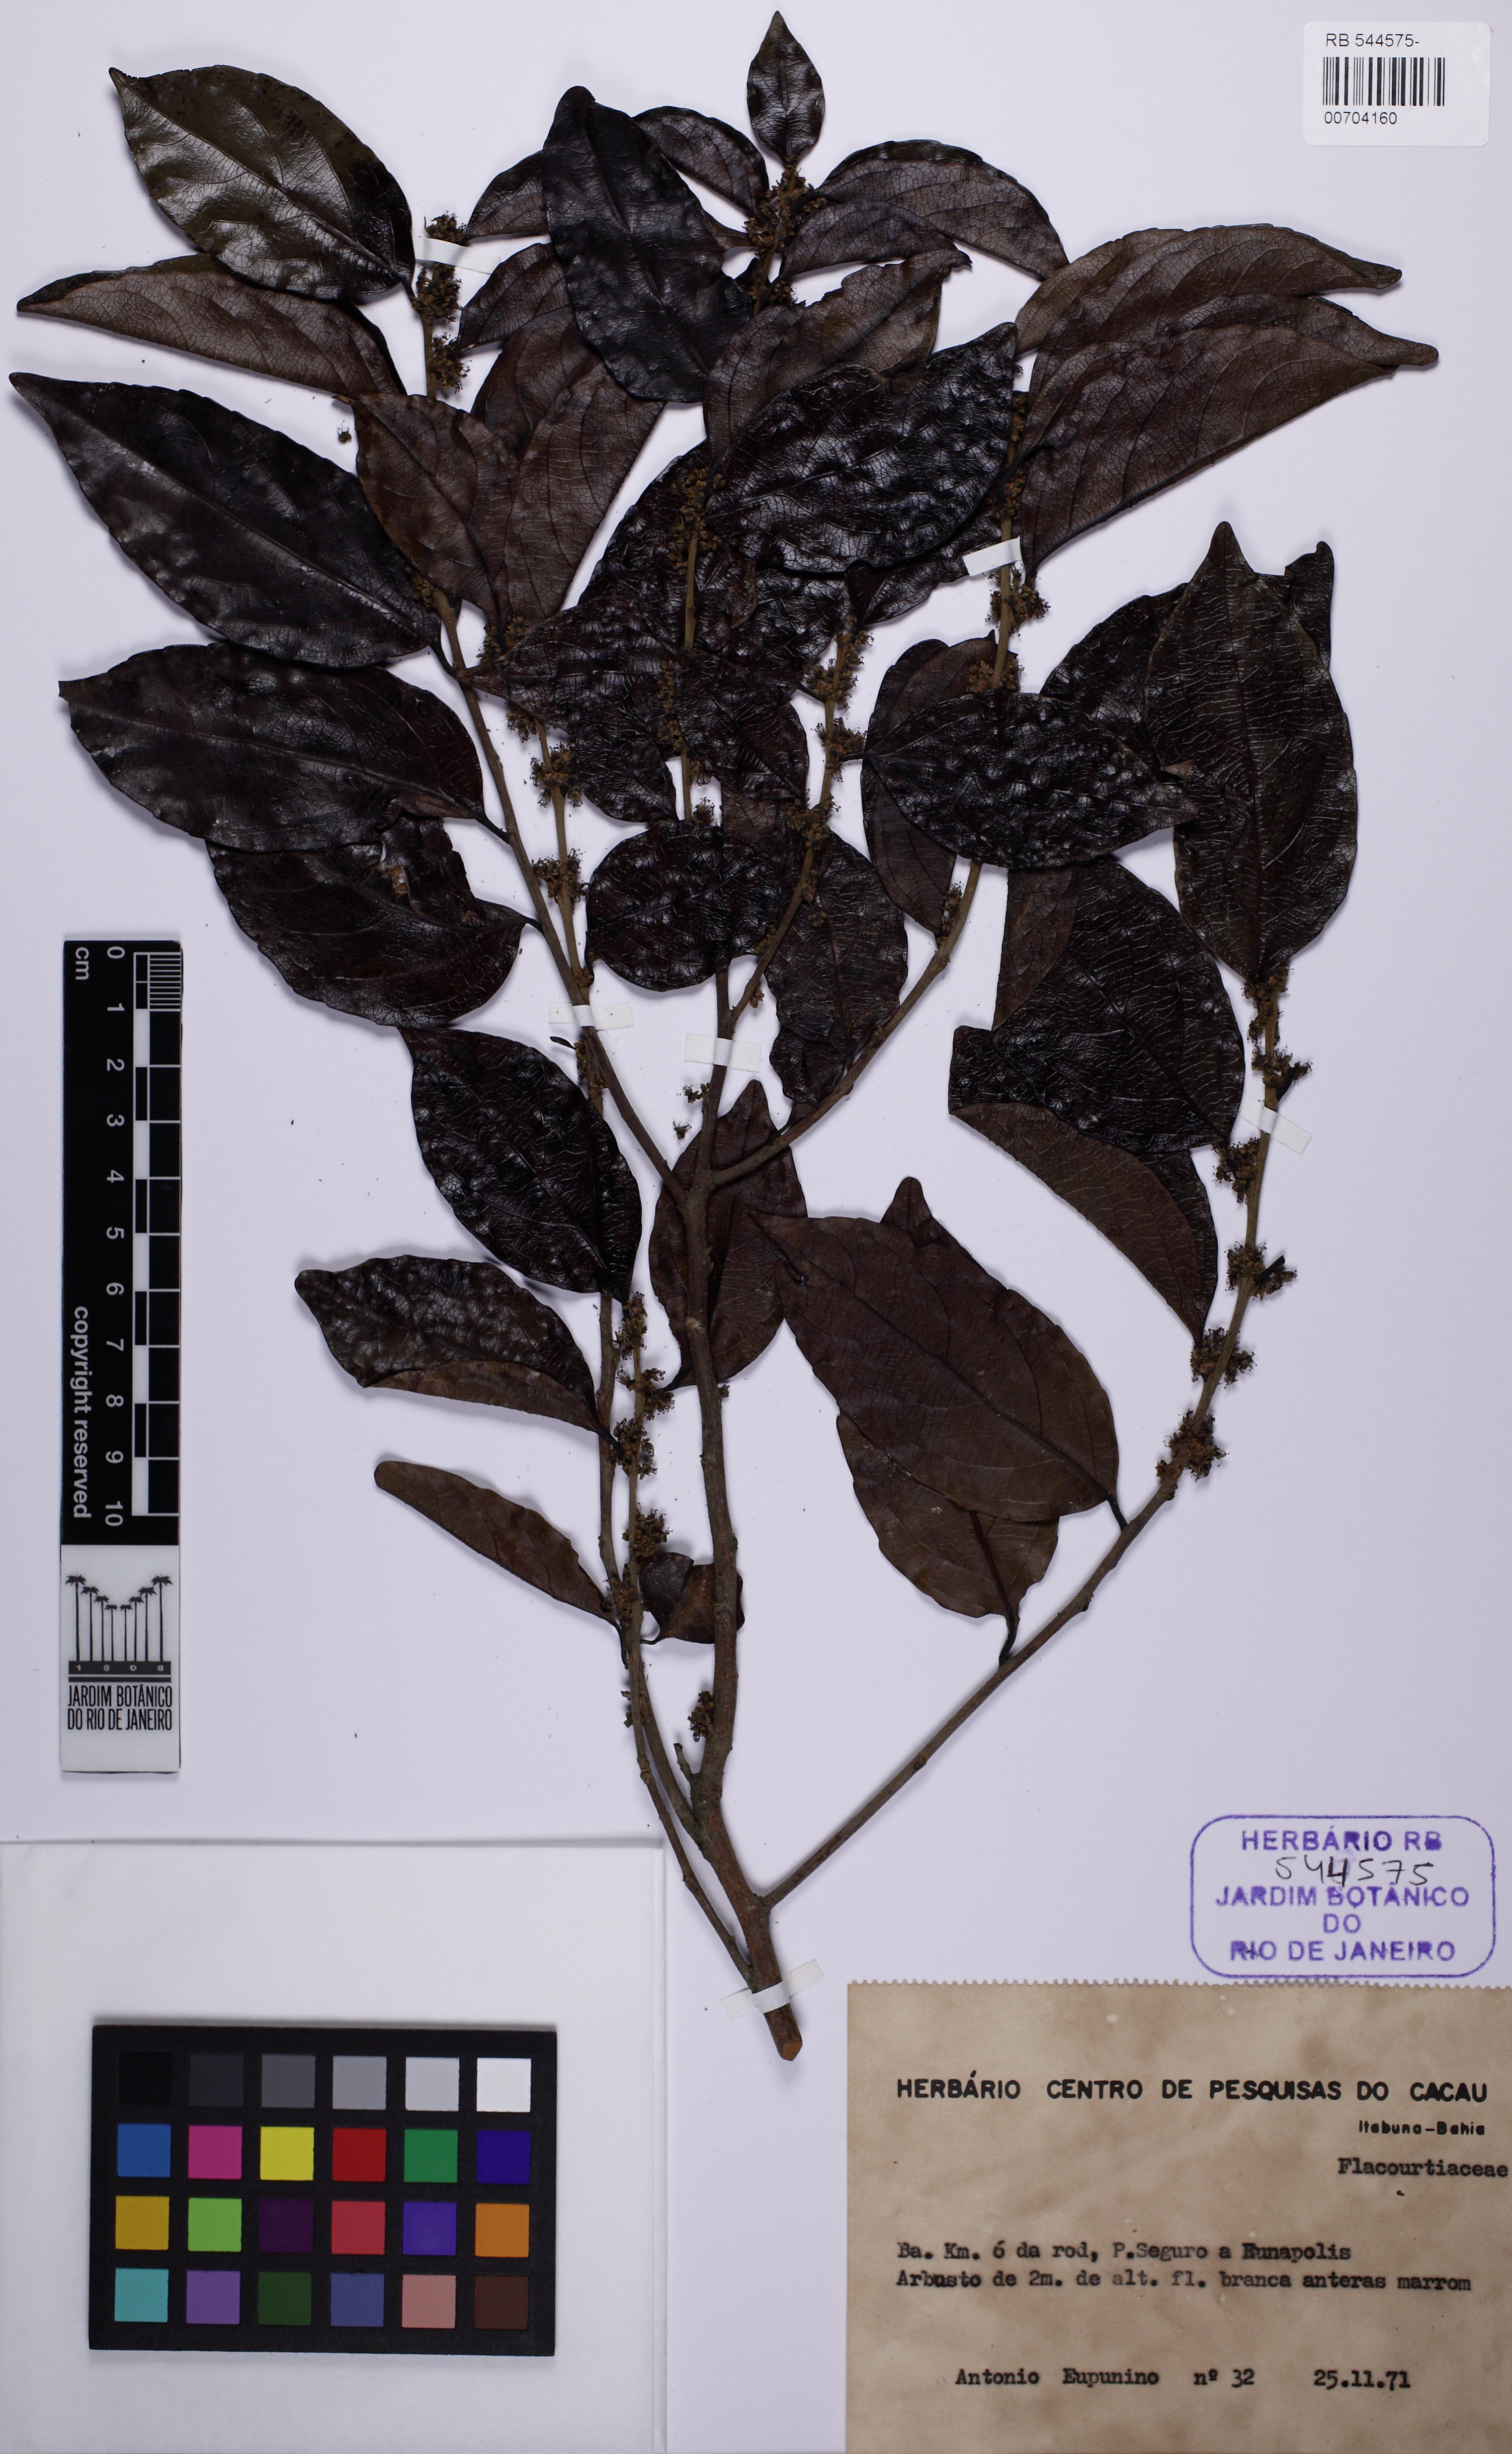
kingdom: Plantae
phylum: Tracheophyta
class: Magnoliopsida
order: Malpighiales
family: Salicaceae
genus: Piparea
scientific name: Piparea dentata
